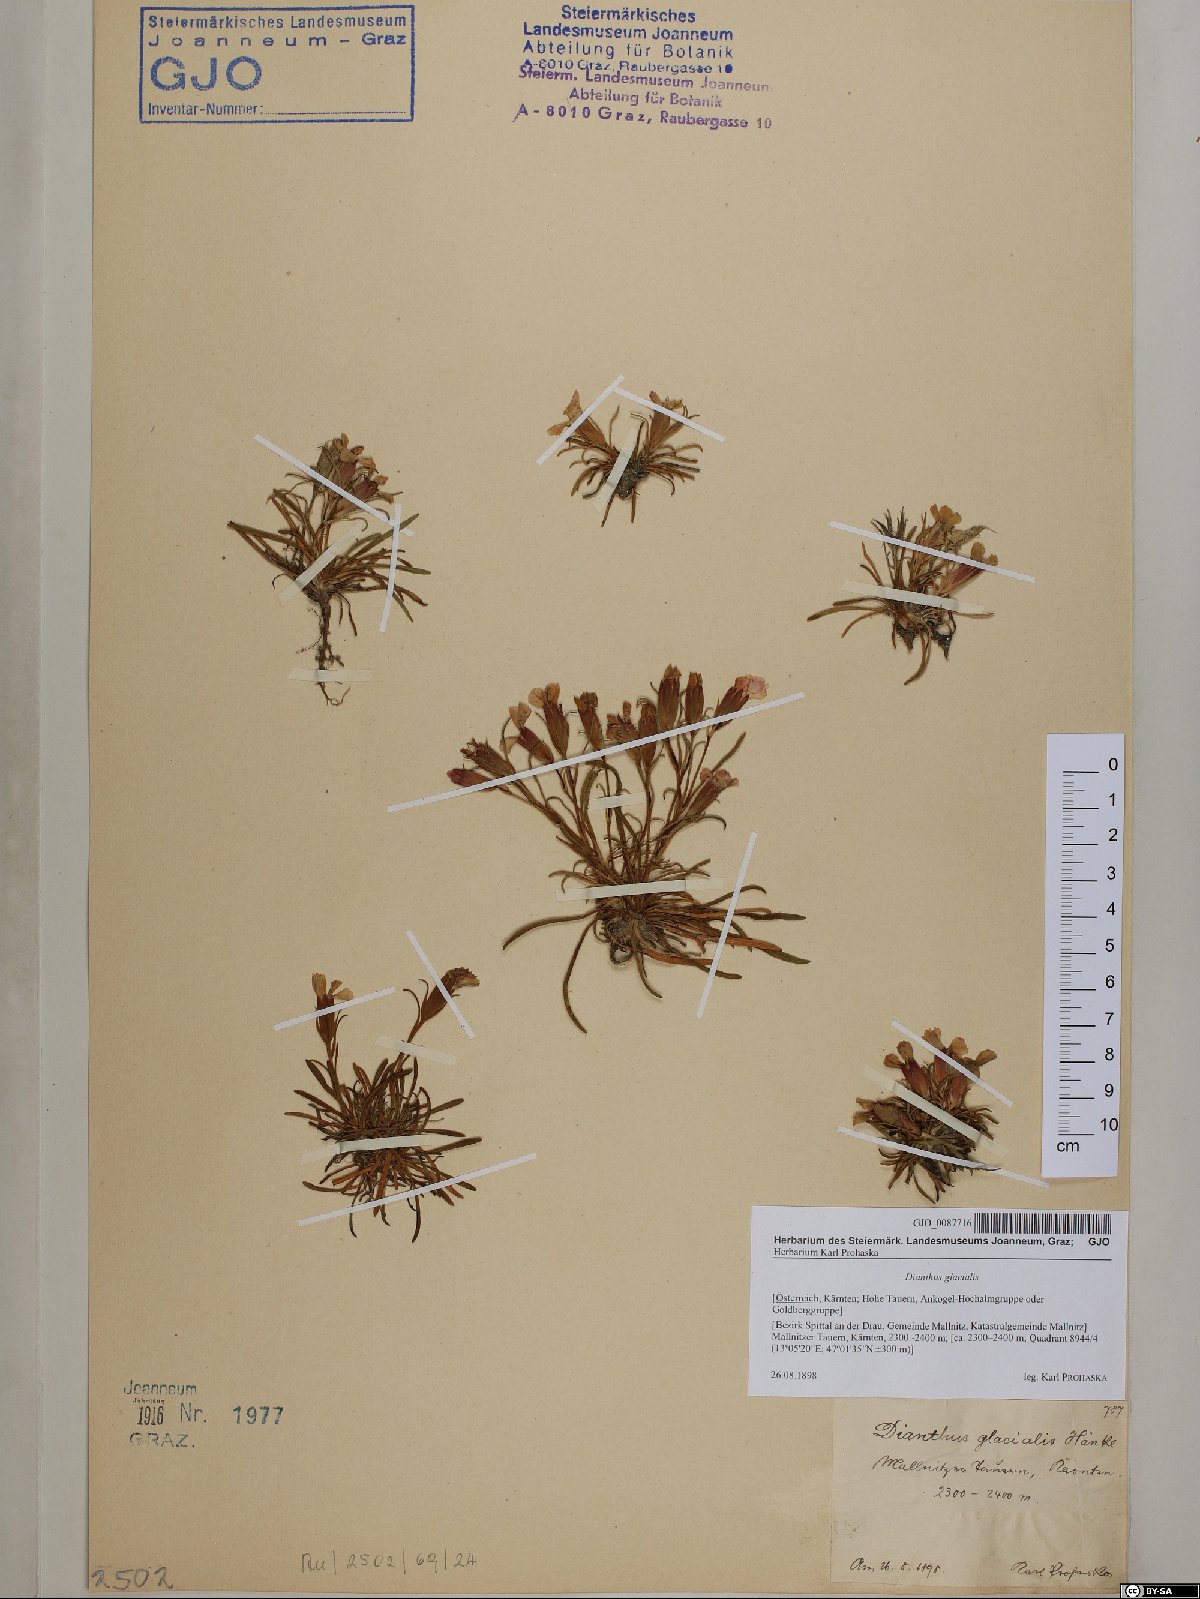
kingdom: Plantae
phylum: Tracheophyta
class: Magnoliopsida
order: Caryophyllales
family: Caryophyllaceae
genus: Dianthus
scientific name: Dianthus glacialis
